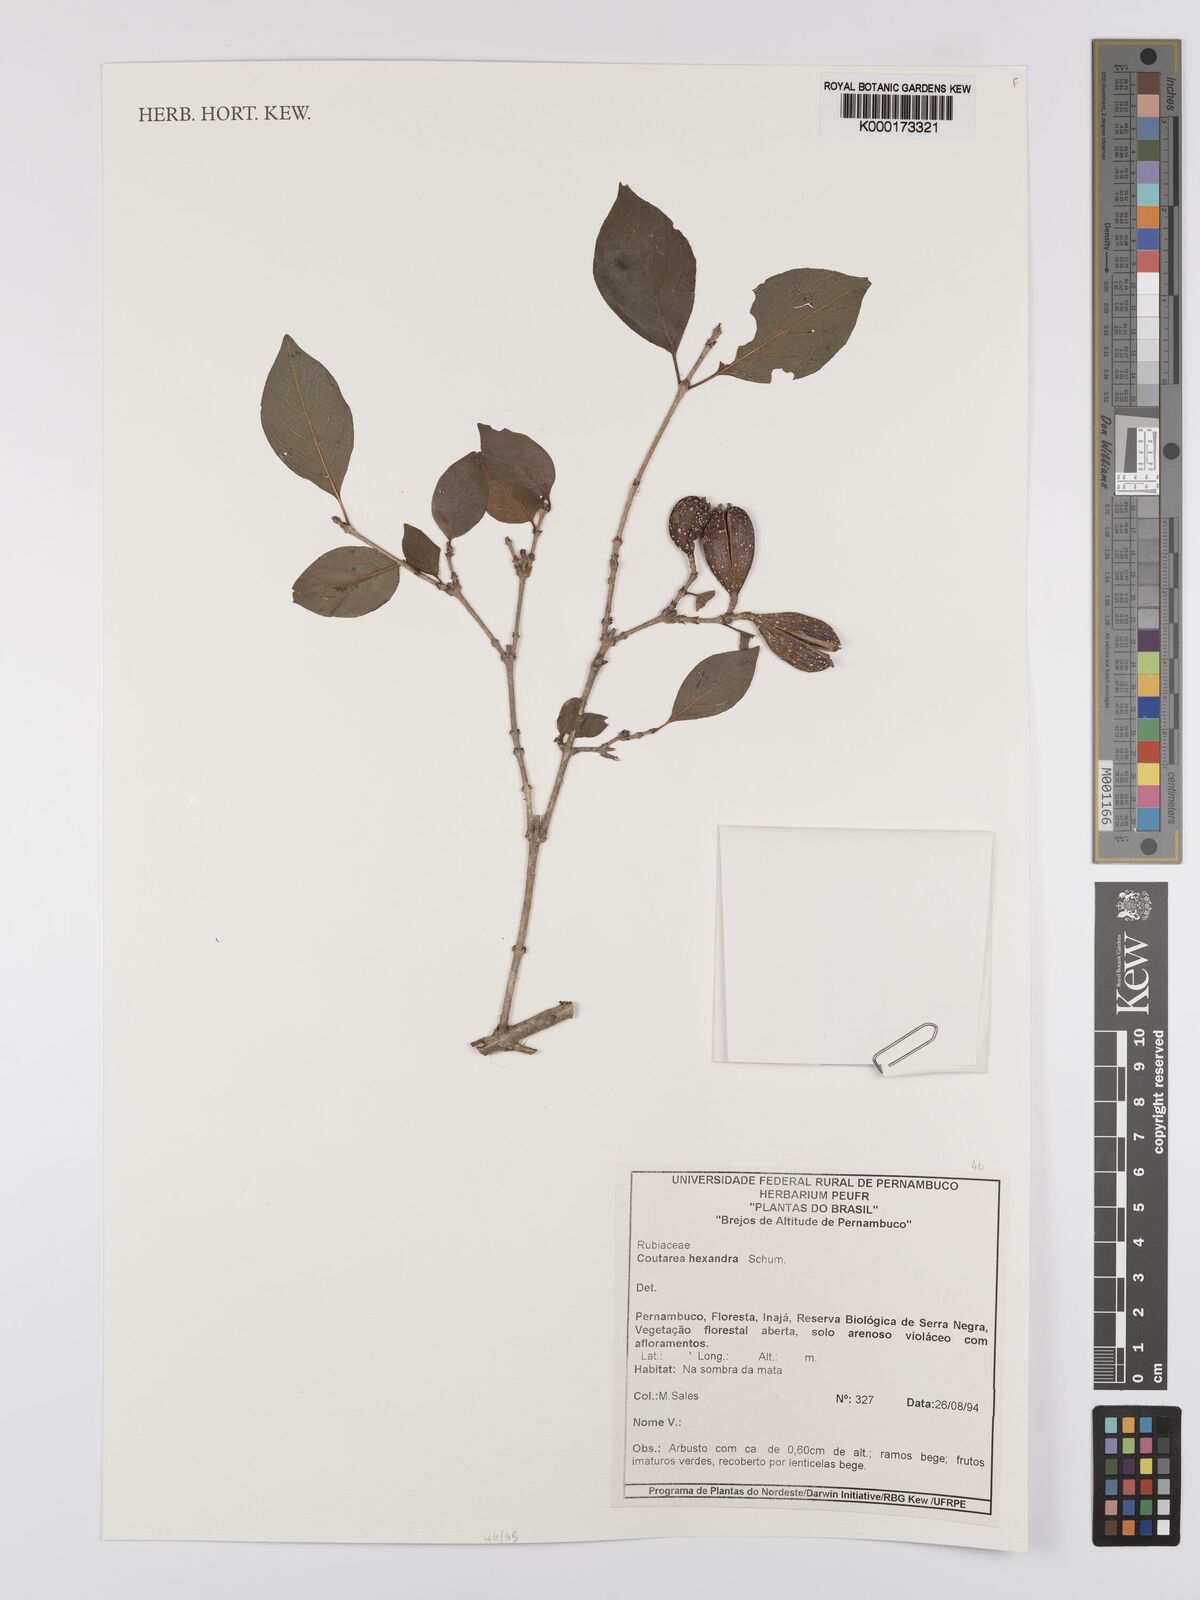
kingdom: Plantae
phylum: Tracheophyta
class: Magnoliopsida
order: Gentianales
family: Rubiaceae
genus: Coutarea
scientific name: Coutarea hexandra
